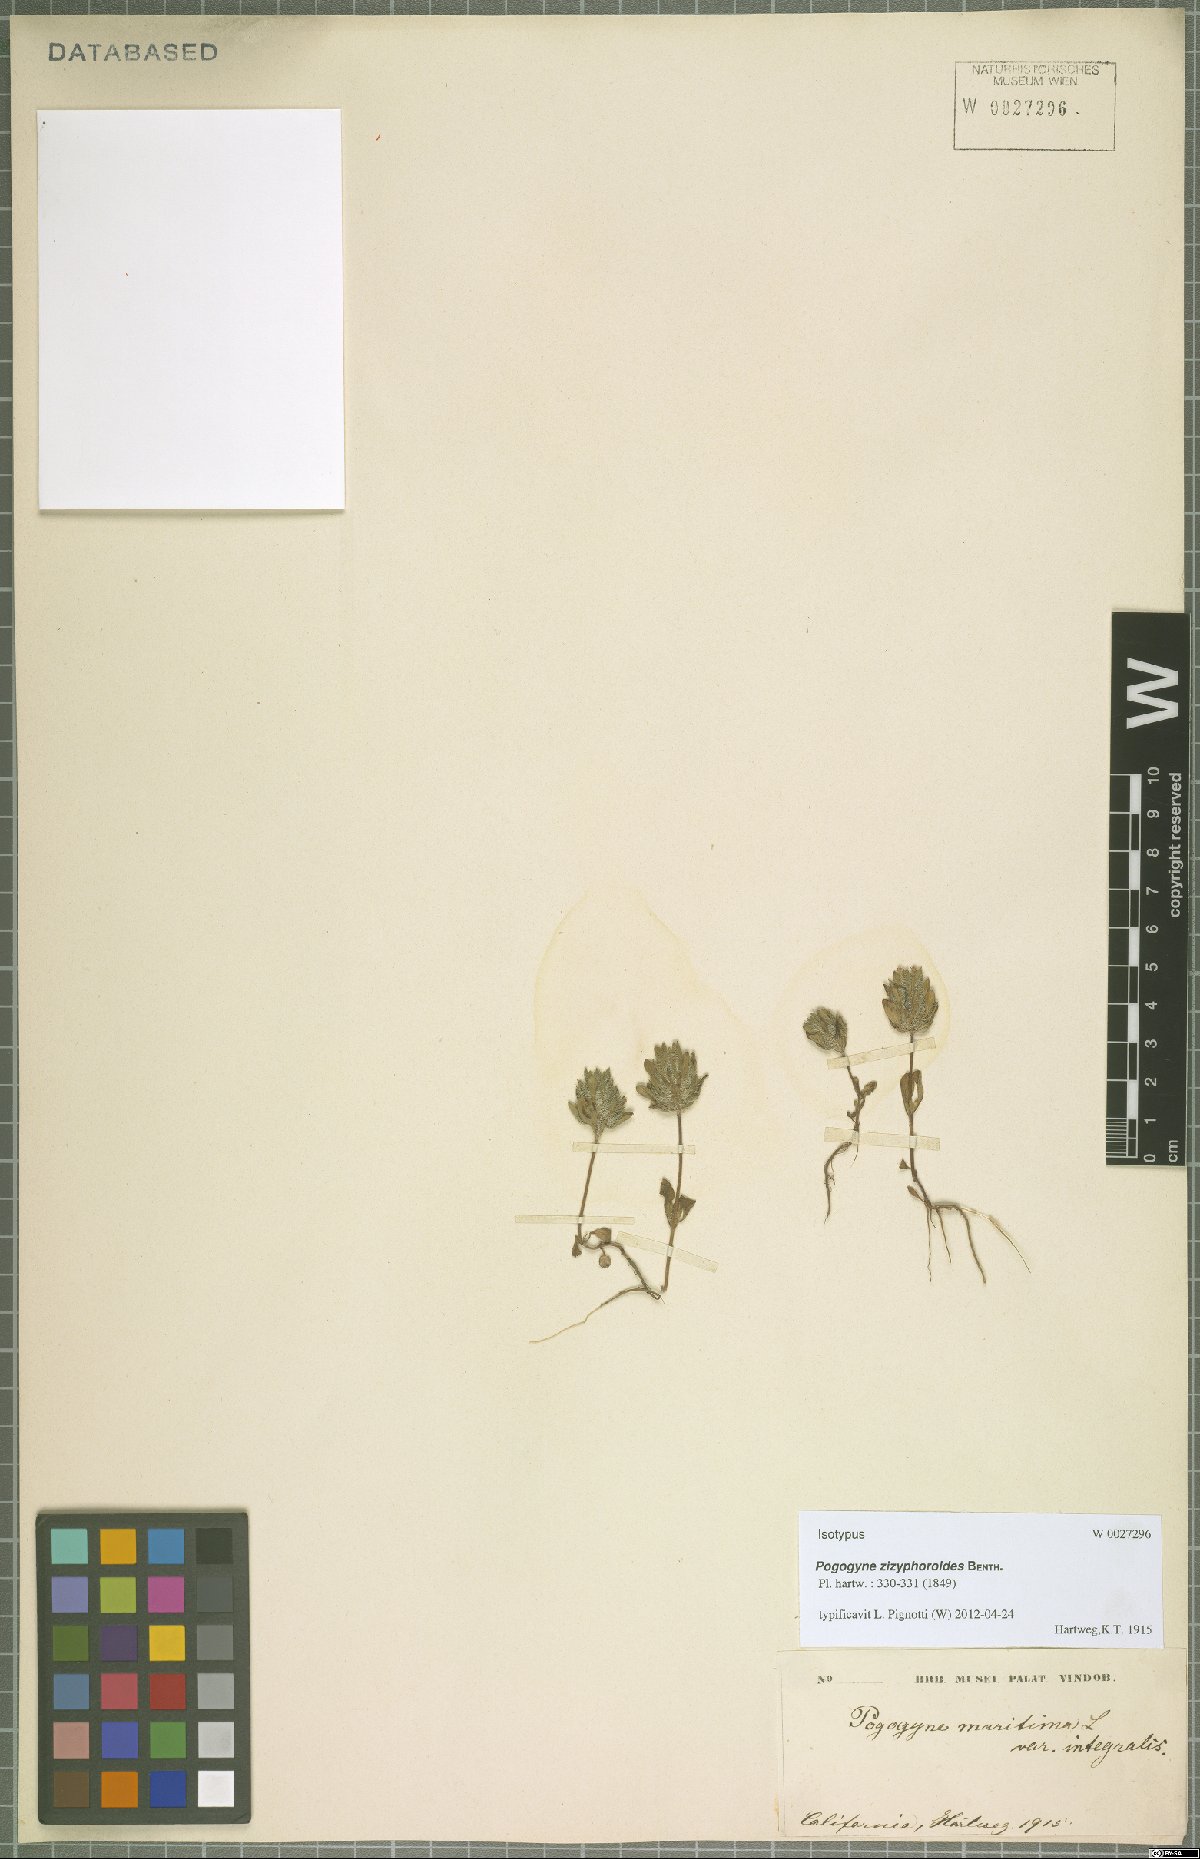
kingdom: Plantae
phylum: Tracheophyta
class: Magnoliopsida
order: Lamiales
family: Lamiaceae
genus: Pogogyne
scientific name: Pogogyne zizyphoroides
